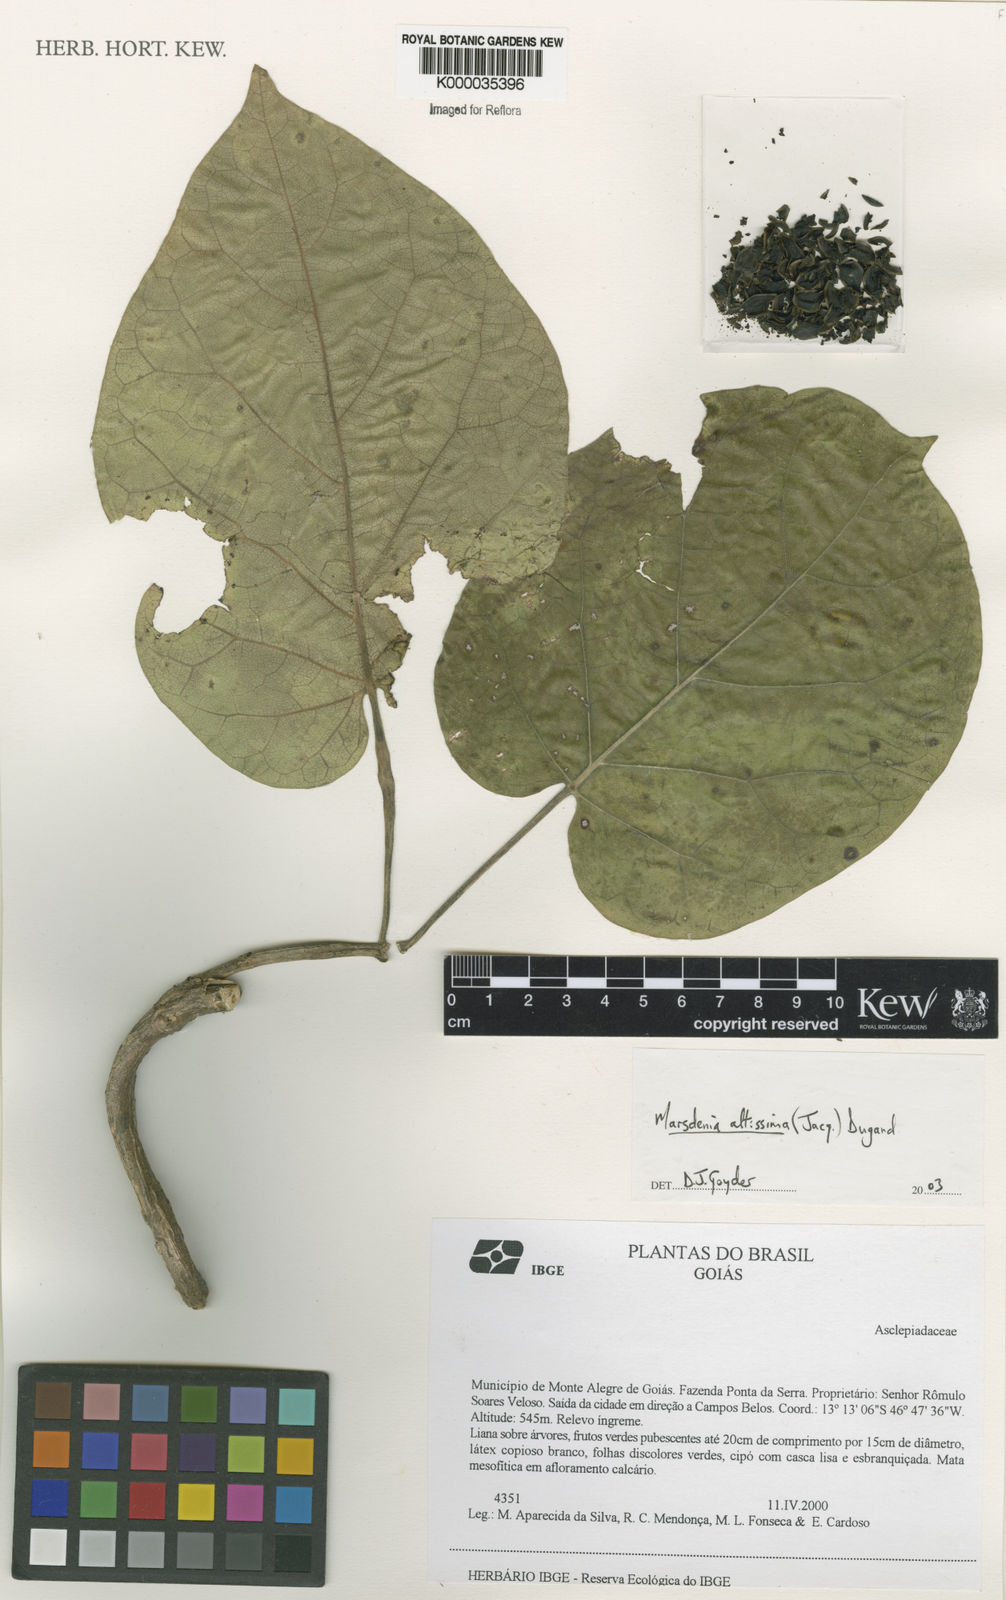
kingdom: Plantae
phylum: Tracheophyta
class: Magnoliopsida
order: Gentianales
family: Apocynaceae
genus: Ruehssia
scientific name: Ruehssia altissima
